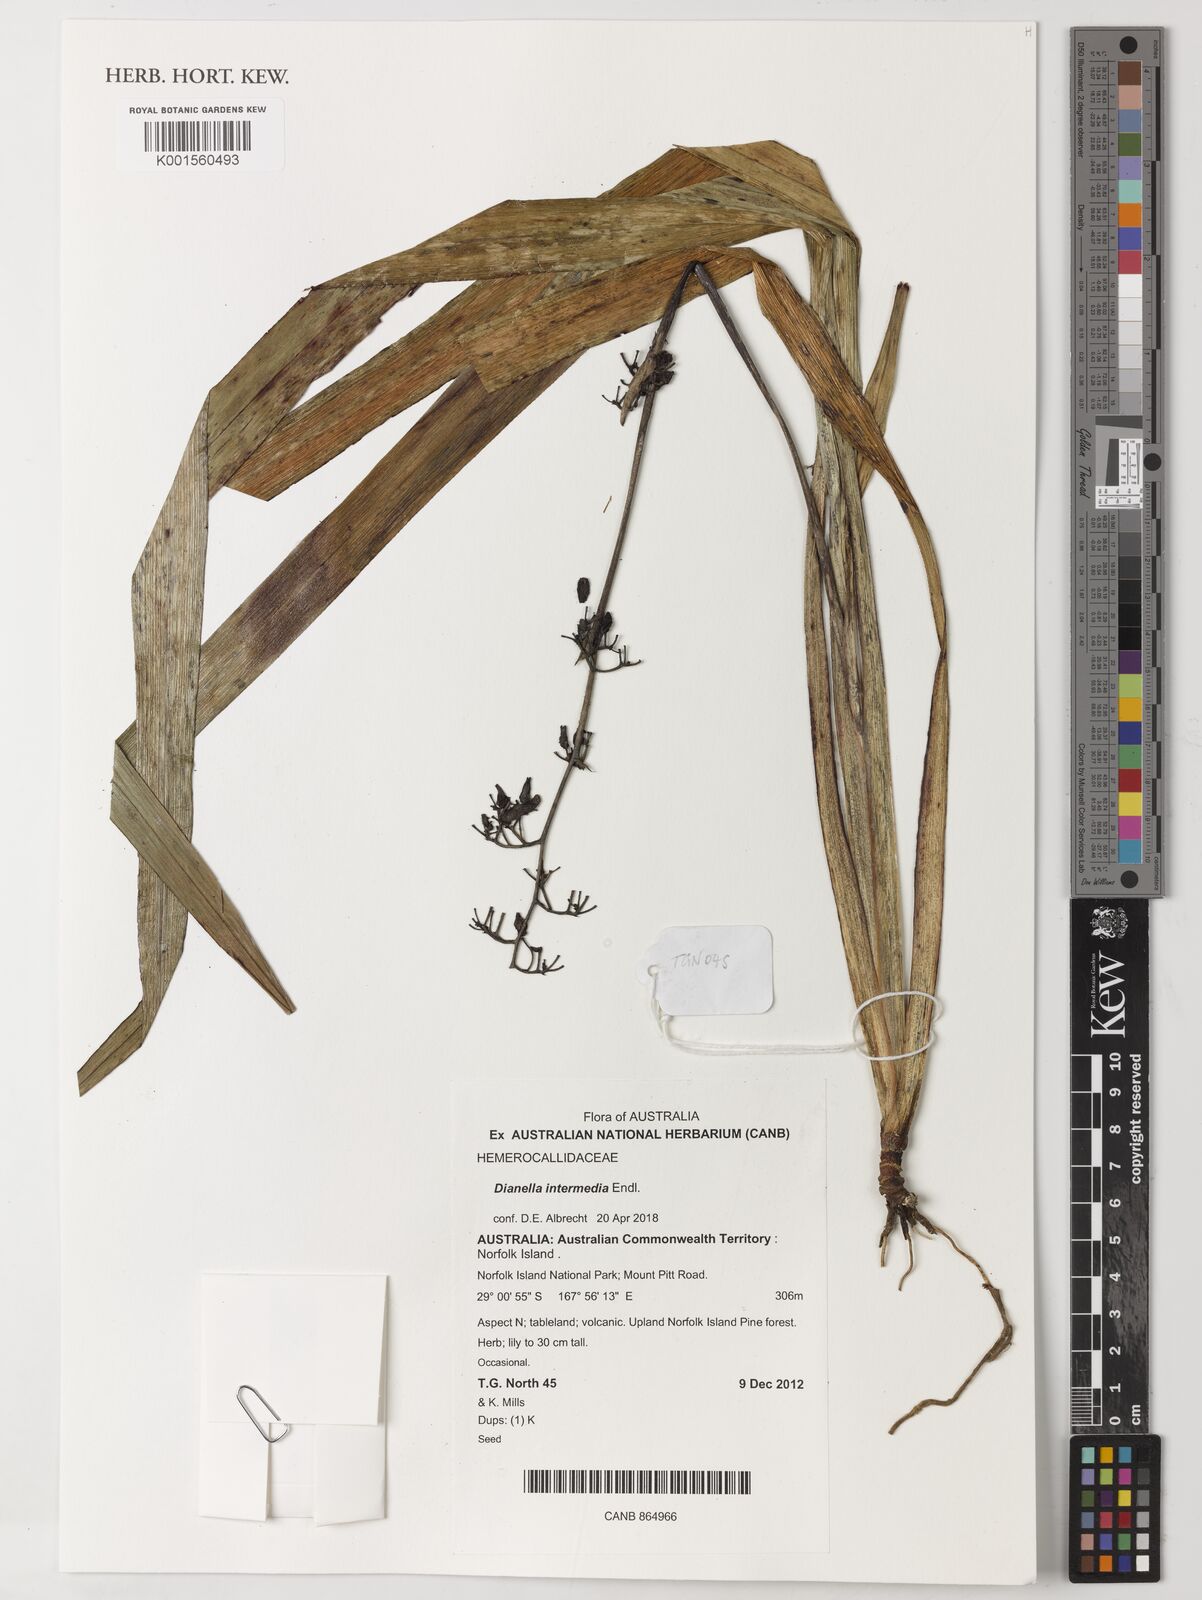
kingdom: Plantae
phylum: Tracheophyta
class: Liliopsida
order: Asparagales
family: Asphodelaceae
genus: Dianella
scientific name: Dianella intermedia
